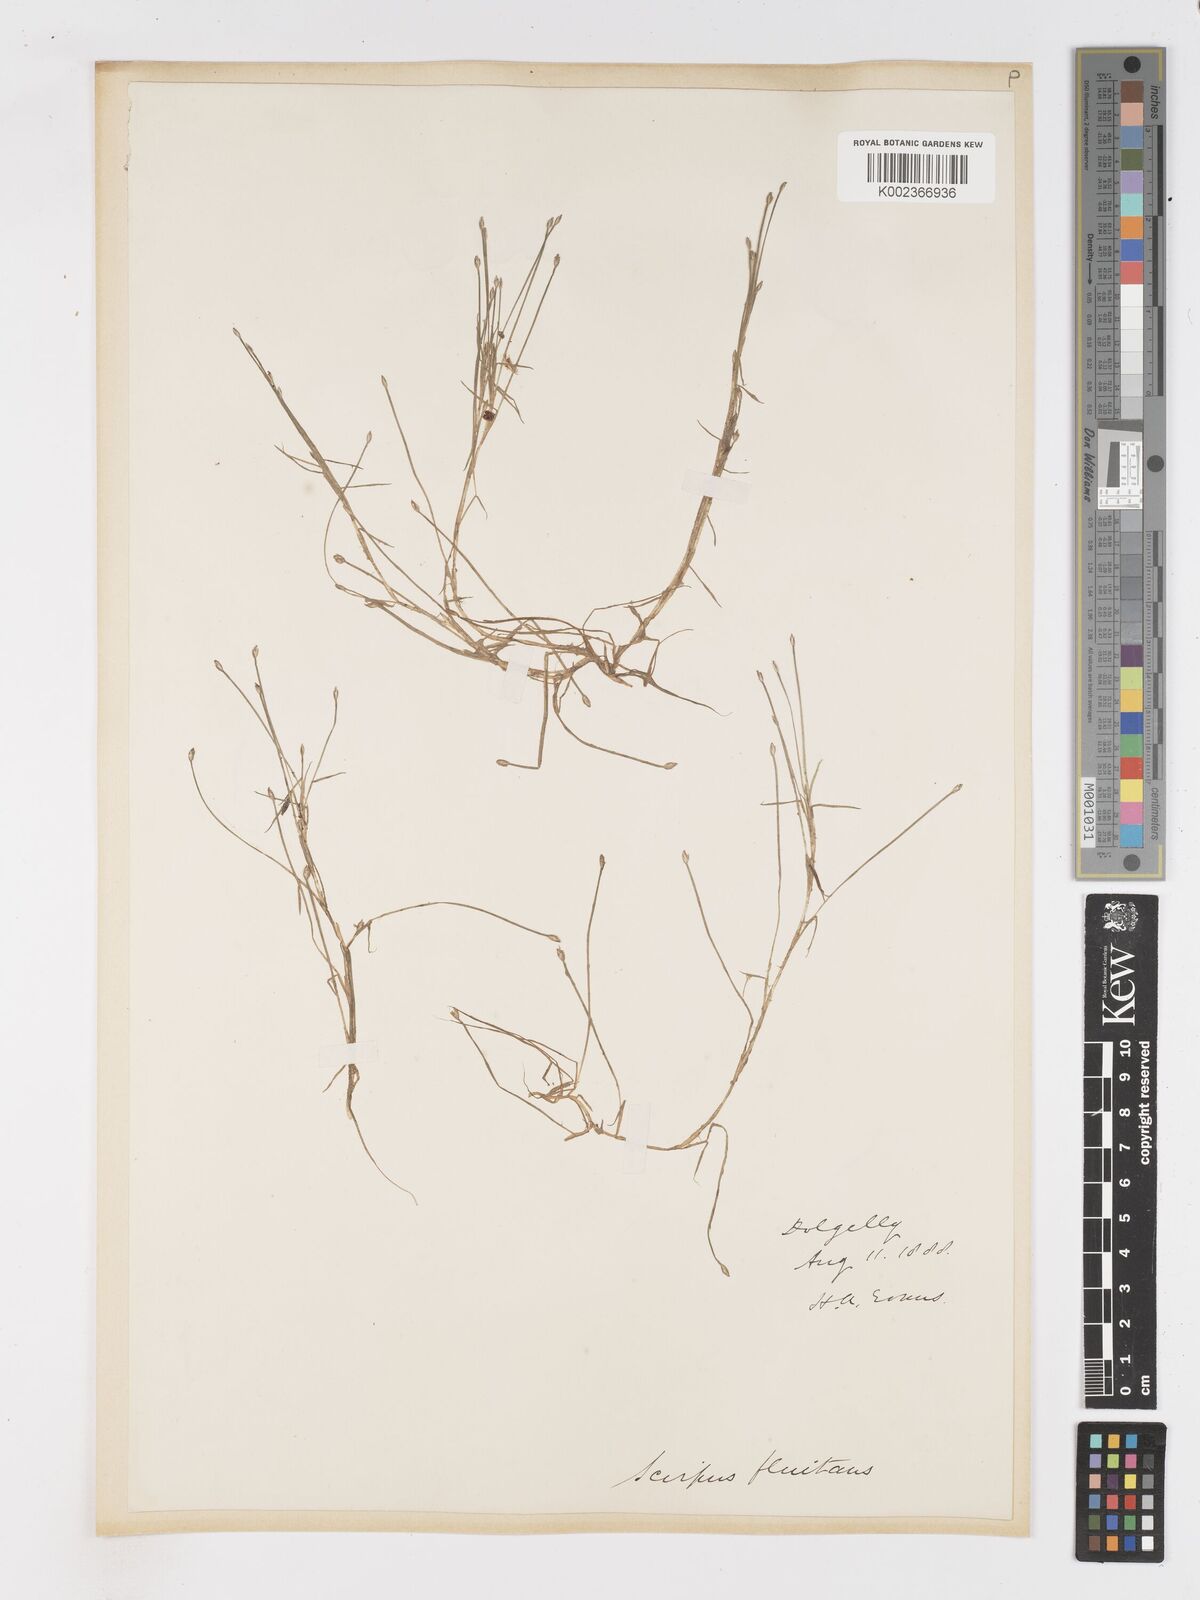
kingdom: Plantae
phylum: Tracheophyta
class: Liliopsida
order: Poales
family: Cyperaceae
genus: Isolepis
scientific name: Isolepis fluitans
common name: Floating club-rush
